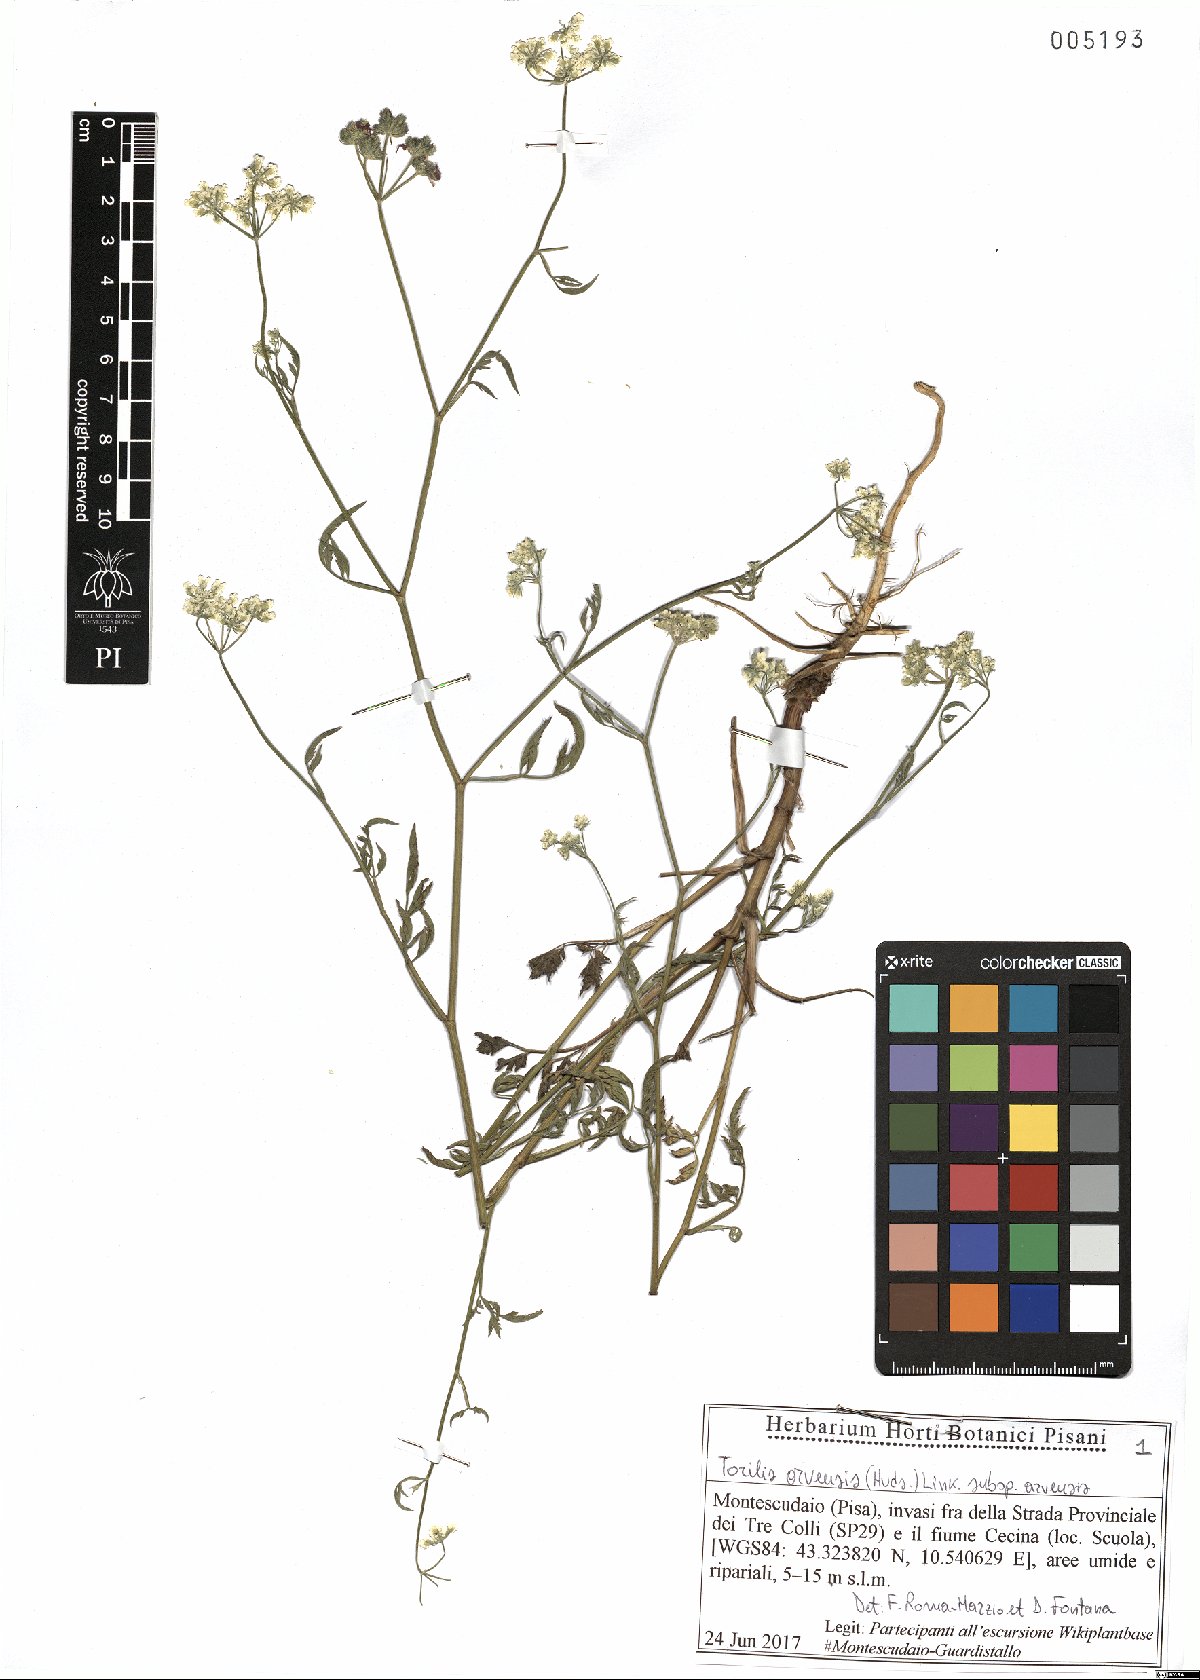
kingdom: Plantae
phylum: Tracheophyta
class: Magnoliopsida
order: Apiales
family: Apiaceae
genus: Torilis
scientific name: Torilis arvensis
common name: Spreading hedge-parsley
